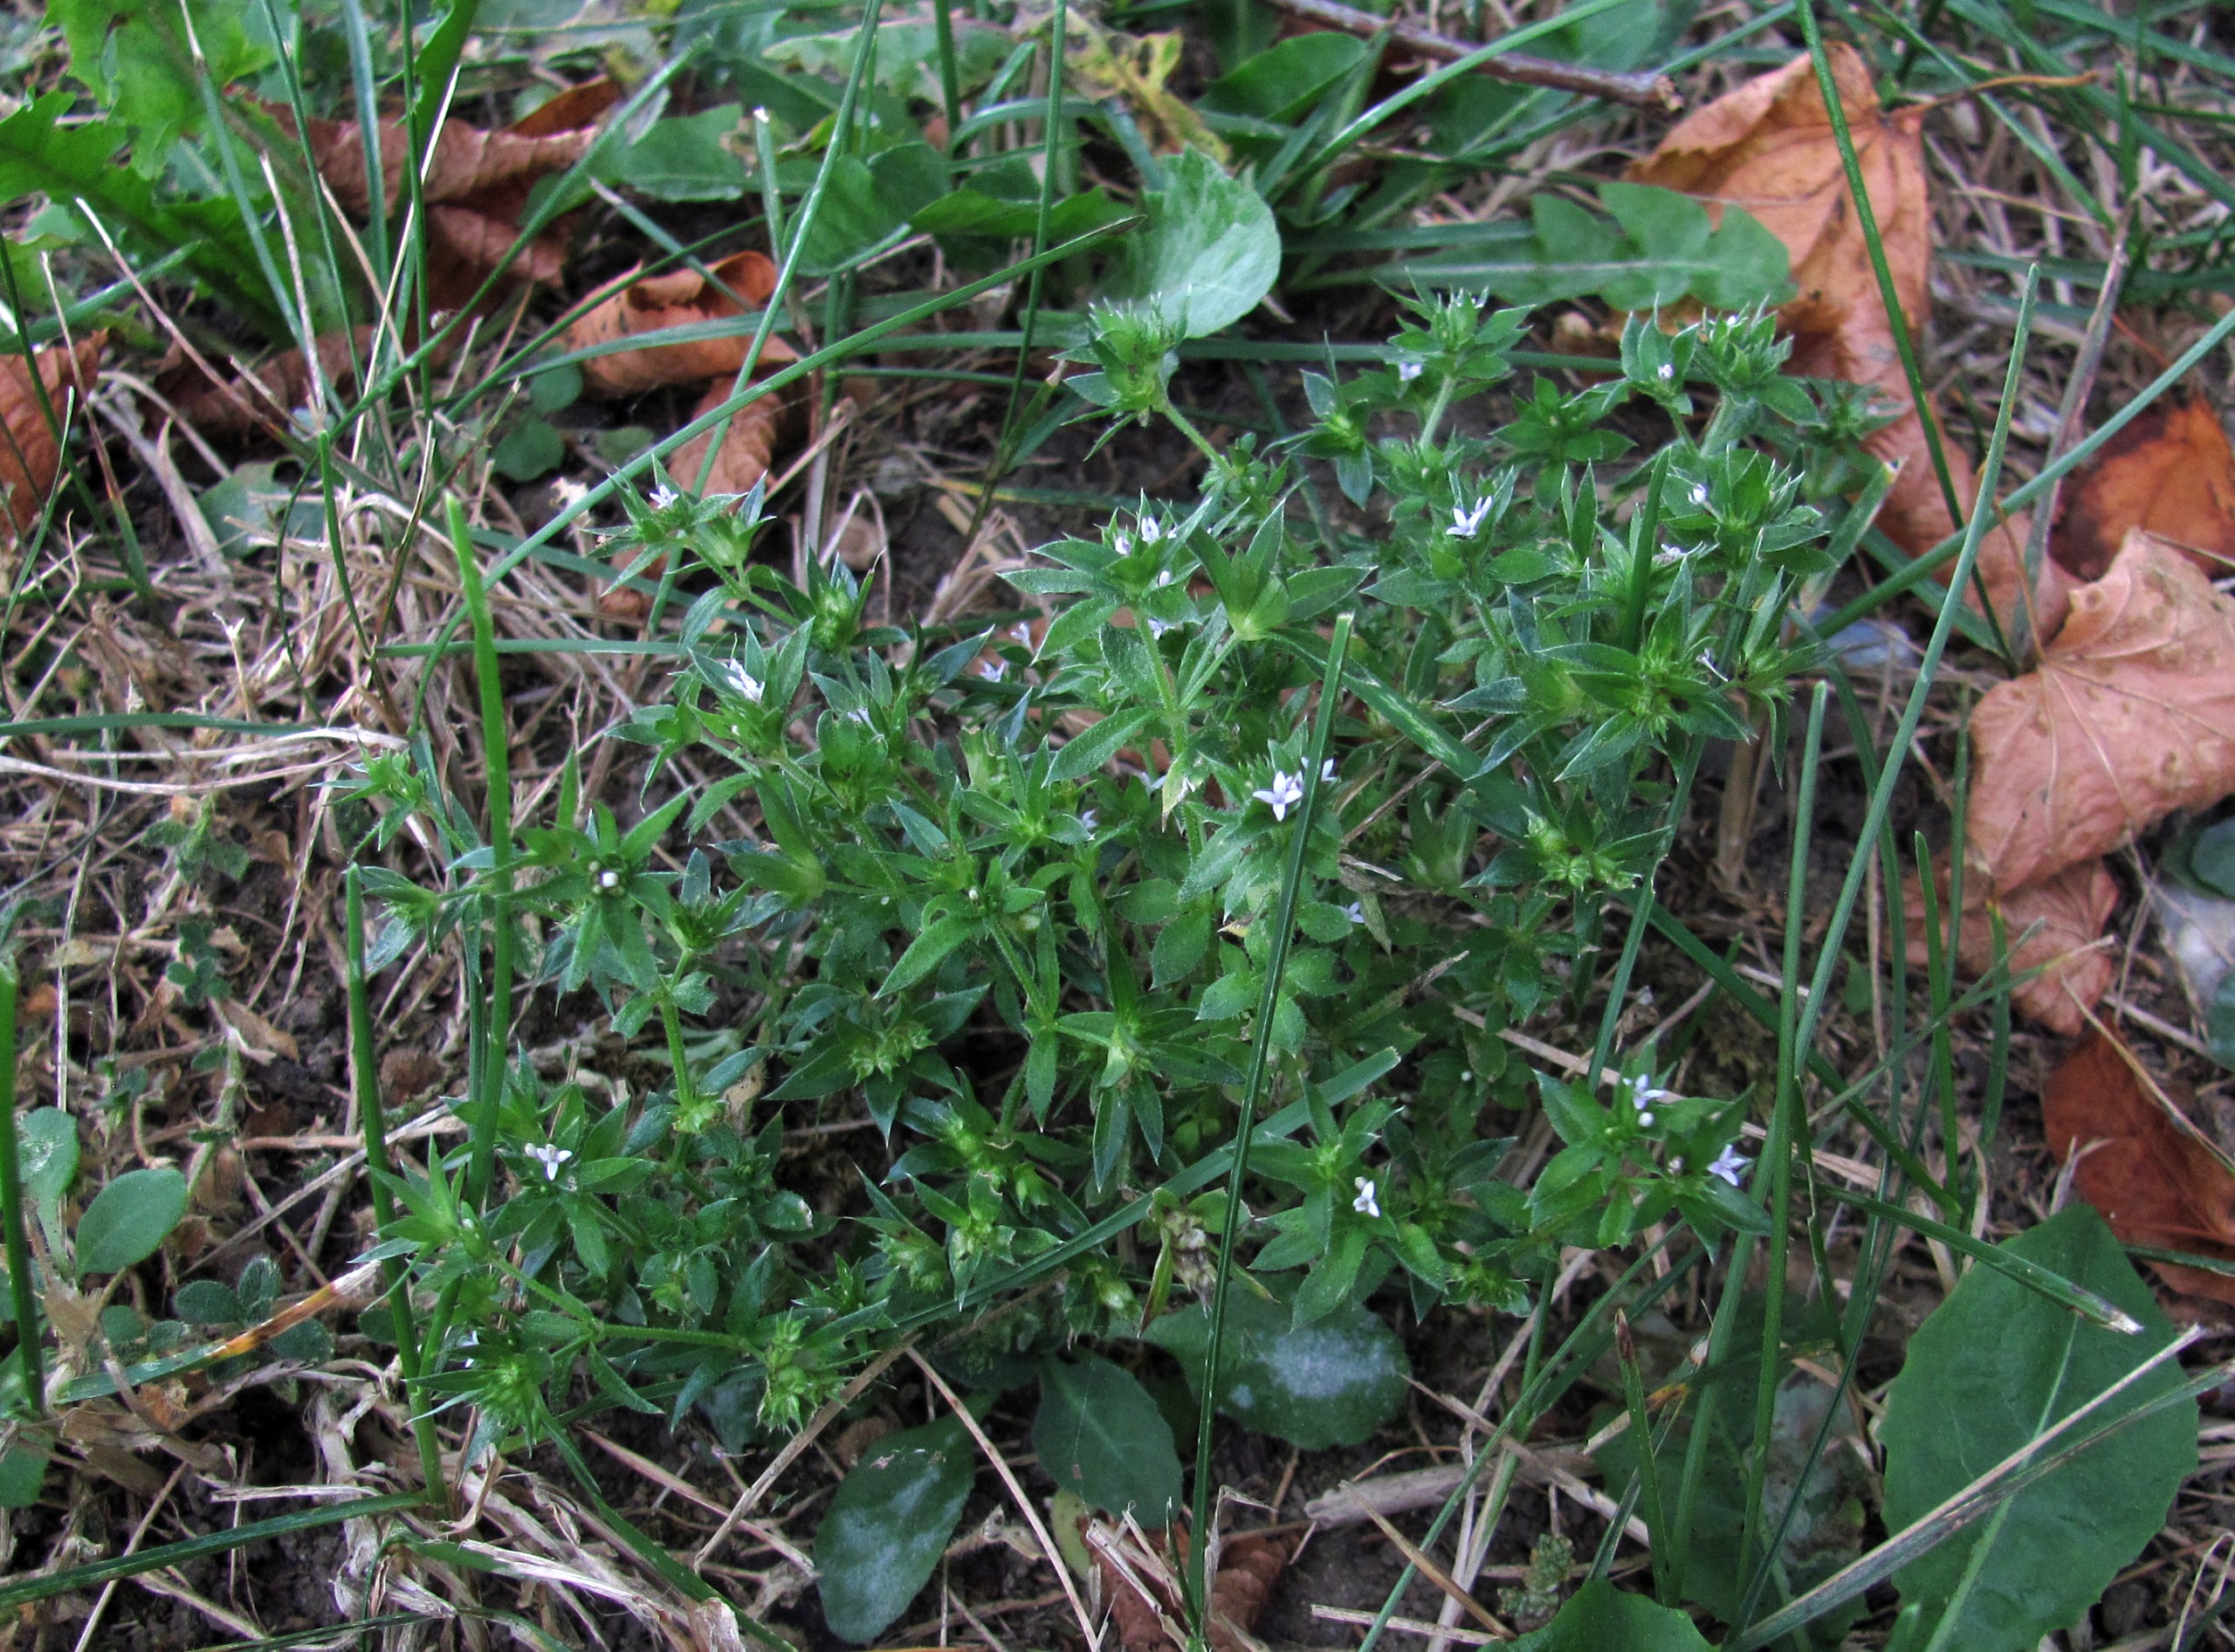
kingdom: Plantae
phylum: Tracheophyta
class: Magnoliopsida
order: Gentianales
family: Rubiaceae
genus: Sherardia
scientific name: Sherardia arvensis
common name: Blåstjerne
